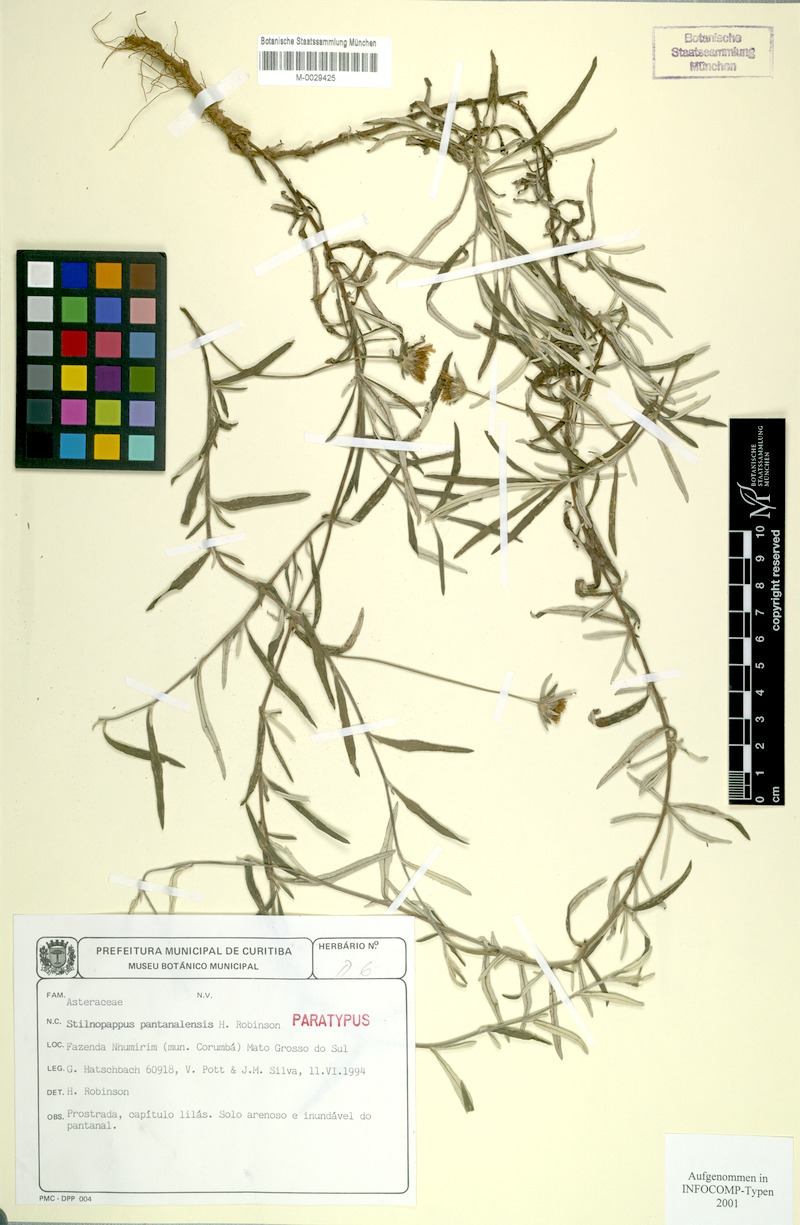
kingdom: Plantae
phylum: Tracheophyta
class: Magnoliopsida
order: Asterales
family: Asteraceae
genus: Stilpnopappus
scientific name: Stilpnopappus pantanalensis
